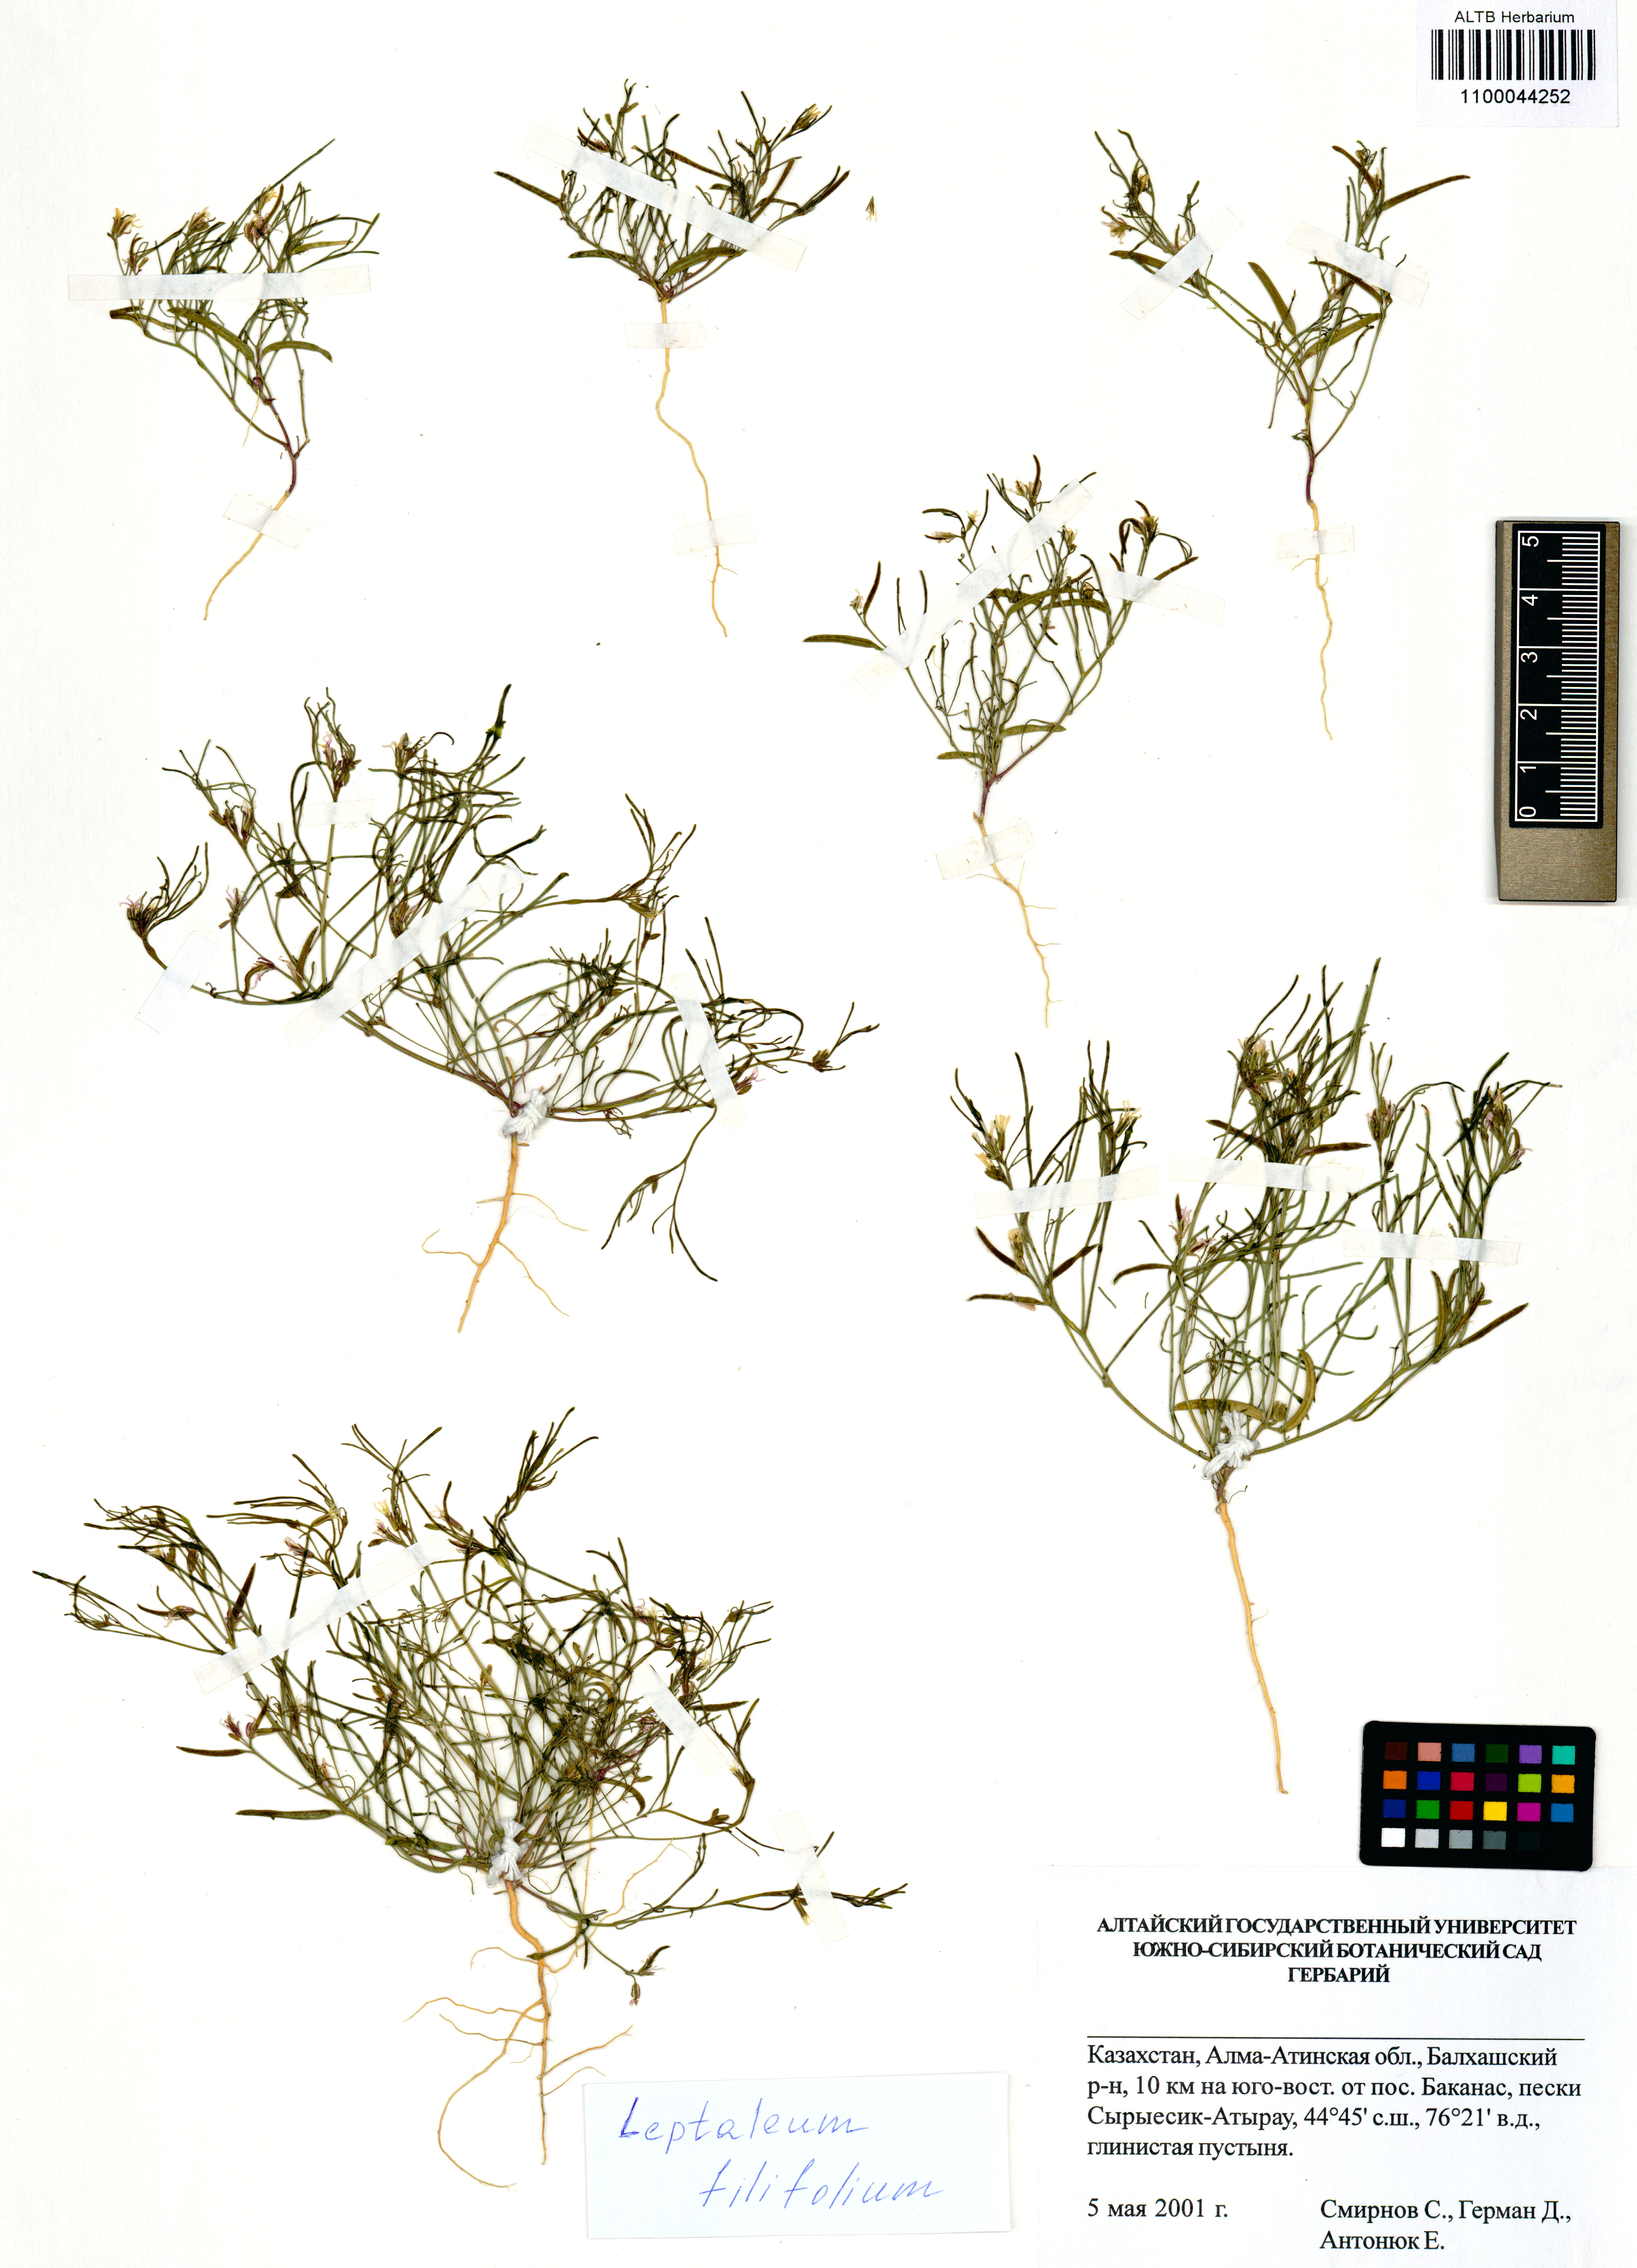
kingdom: Plantae
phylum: Tracheophyta
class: Magnoliopsida
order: Brassicales
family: Brassicaceae
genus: Leptaleum
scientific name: Leptaleum filifolium
